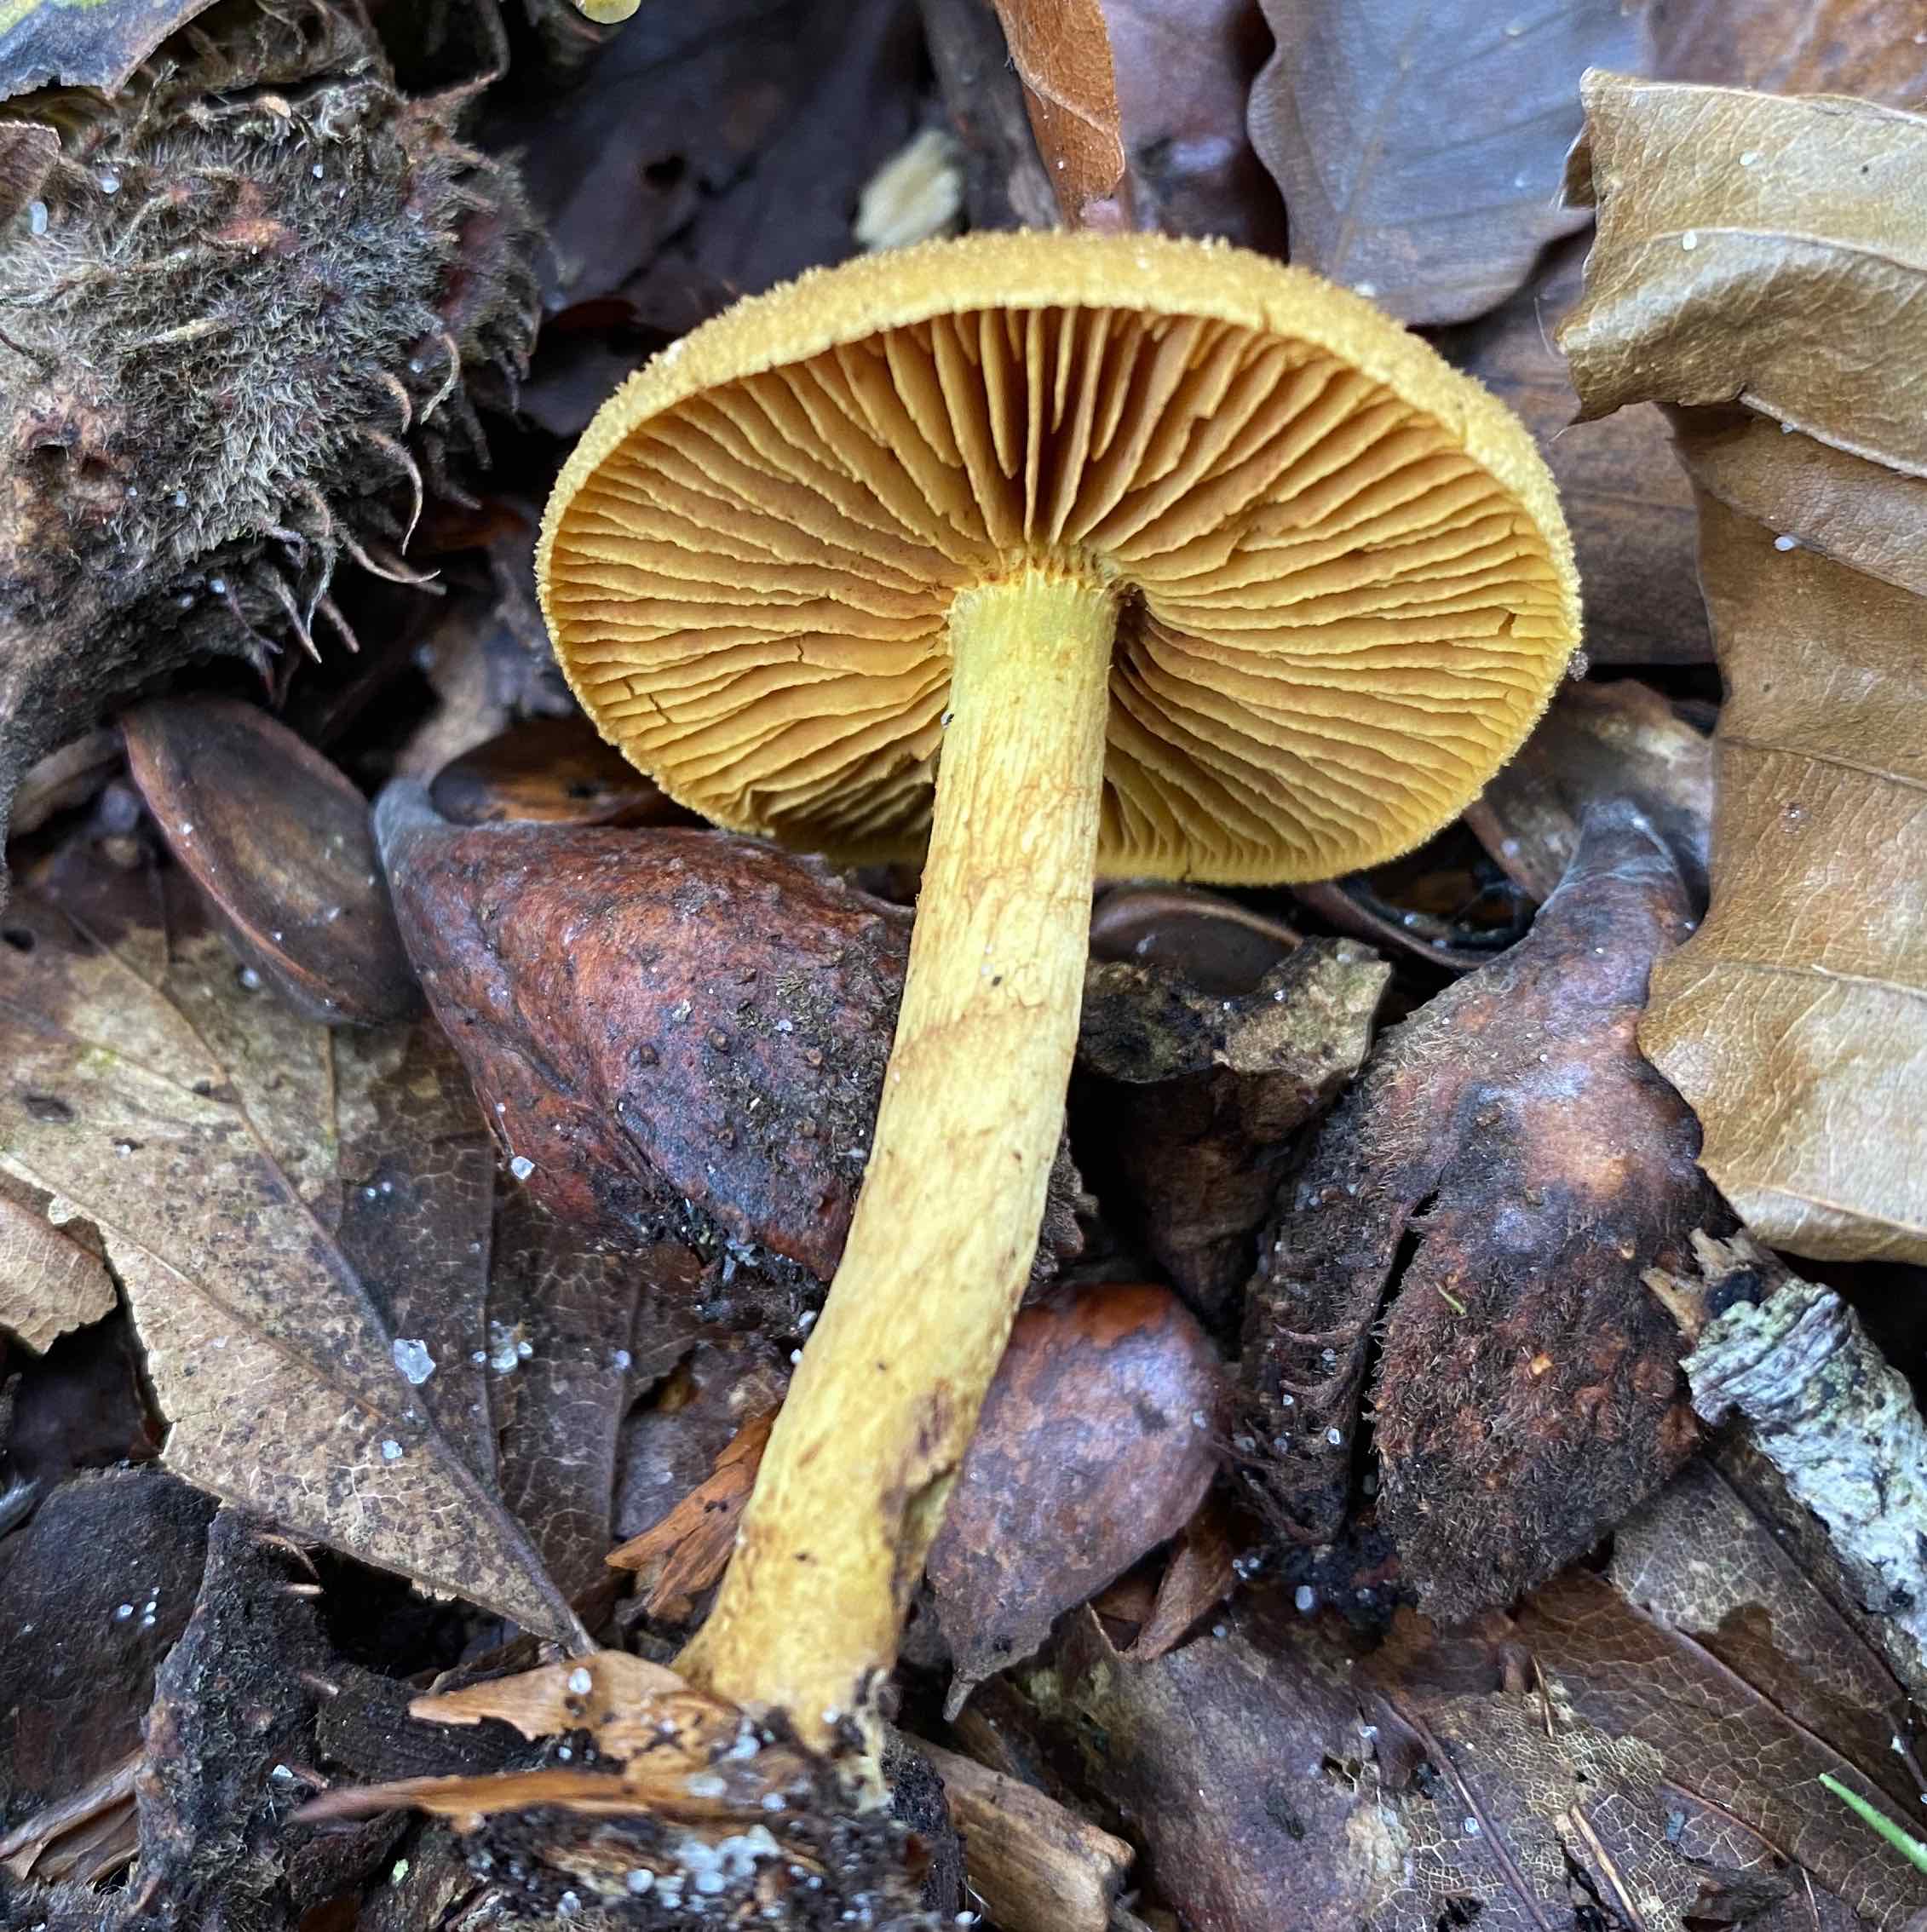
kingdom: Fungi
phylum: Basidiomycota
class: Agaricomycetes
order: Agaricales
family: Cortinariaceae
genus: Cortinarius
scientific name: Cortinarius
